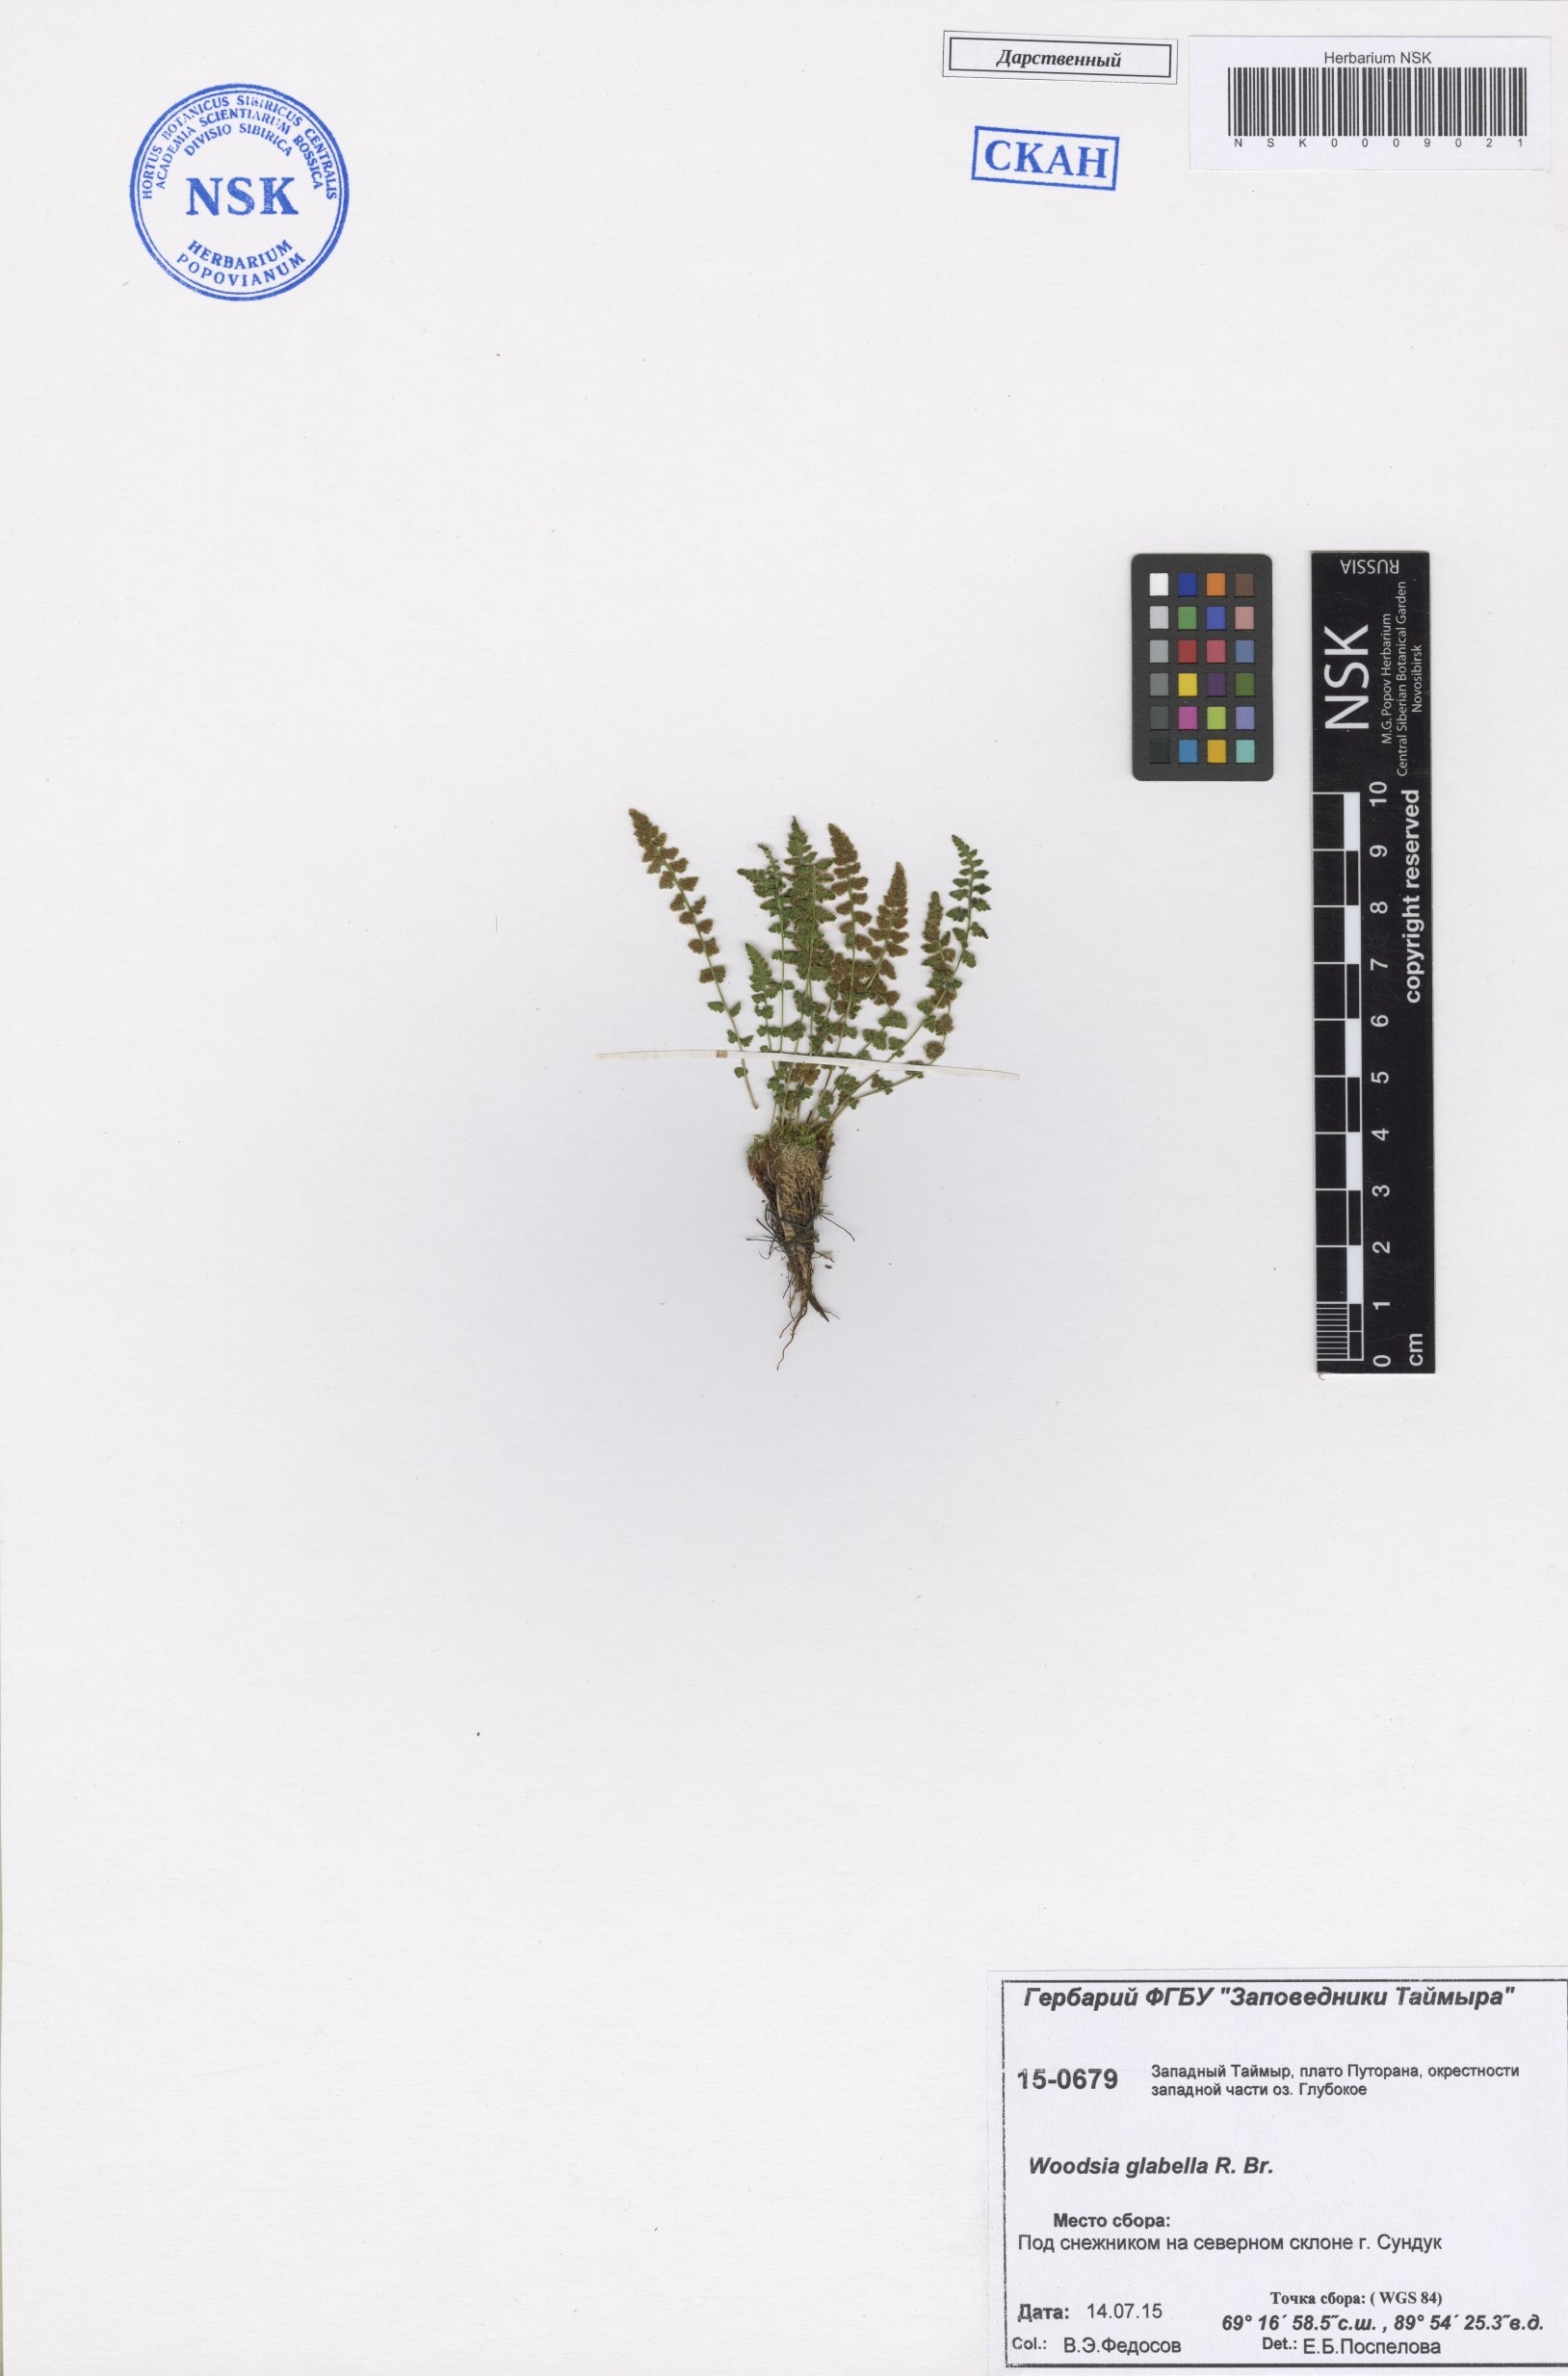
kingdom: Plantae
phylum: Tracheophyta
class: Polypodiopsida
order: Polypodiales
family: Woodsiaceae
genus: Woodsia
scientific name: Woodsia glabella
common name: Smooth woodsia
